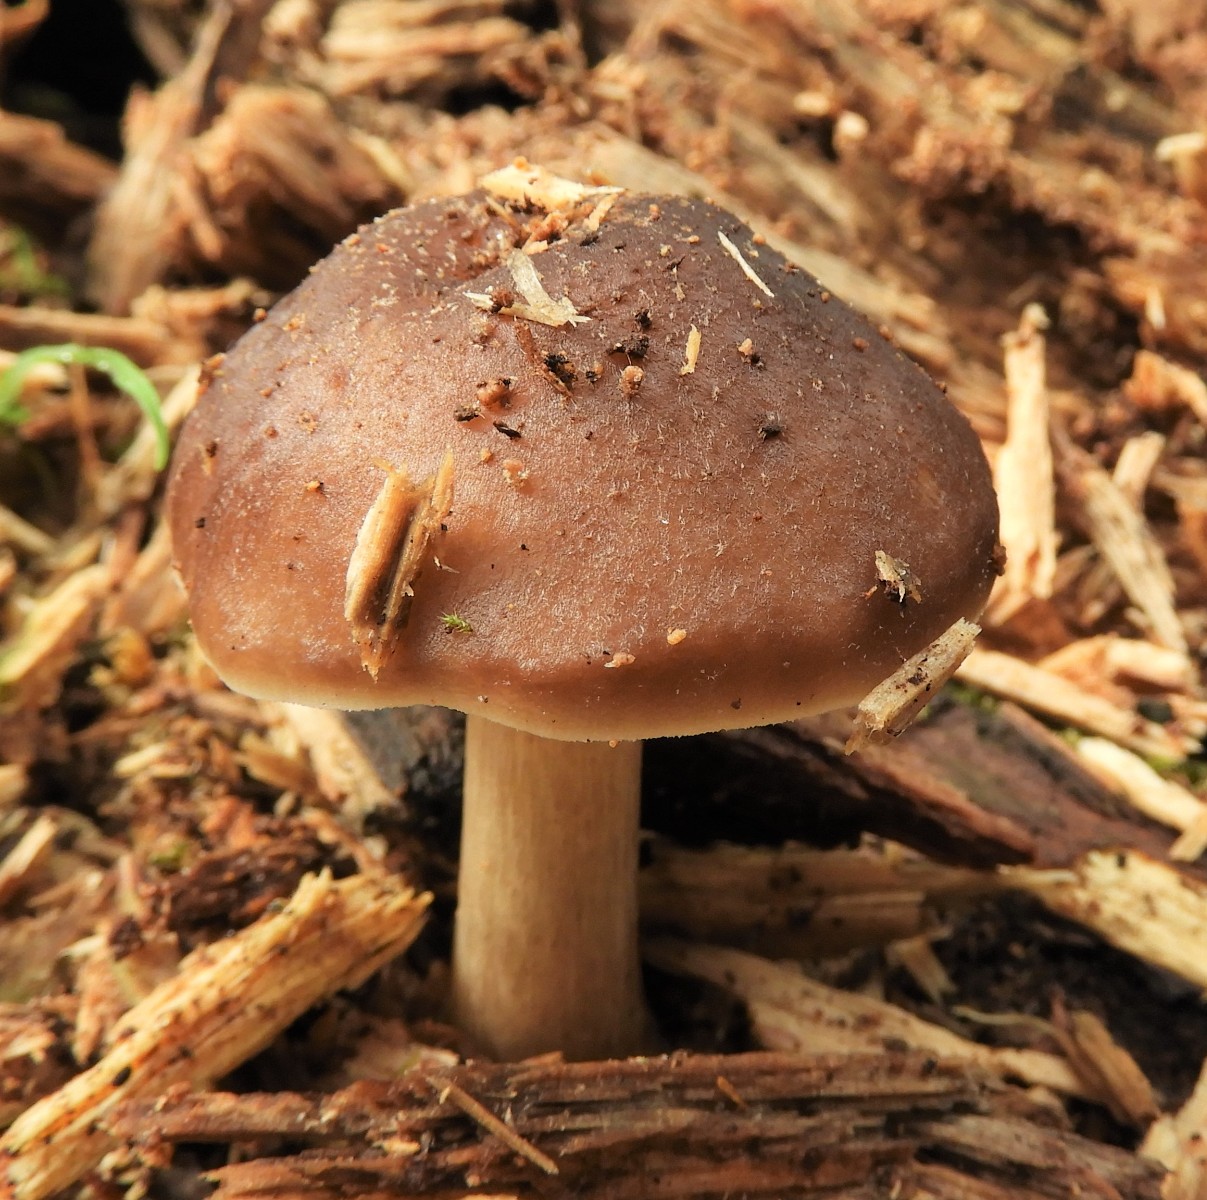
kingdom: Fungi
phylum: Basidiomycota
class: Agaricomycetes
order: Agaricales
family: Pluteaceae
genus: Pluteus
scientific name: Pluteus cervinus
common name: sodfarvet skærmhat
